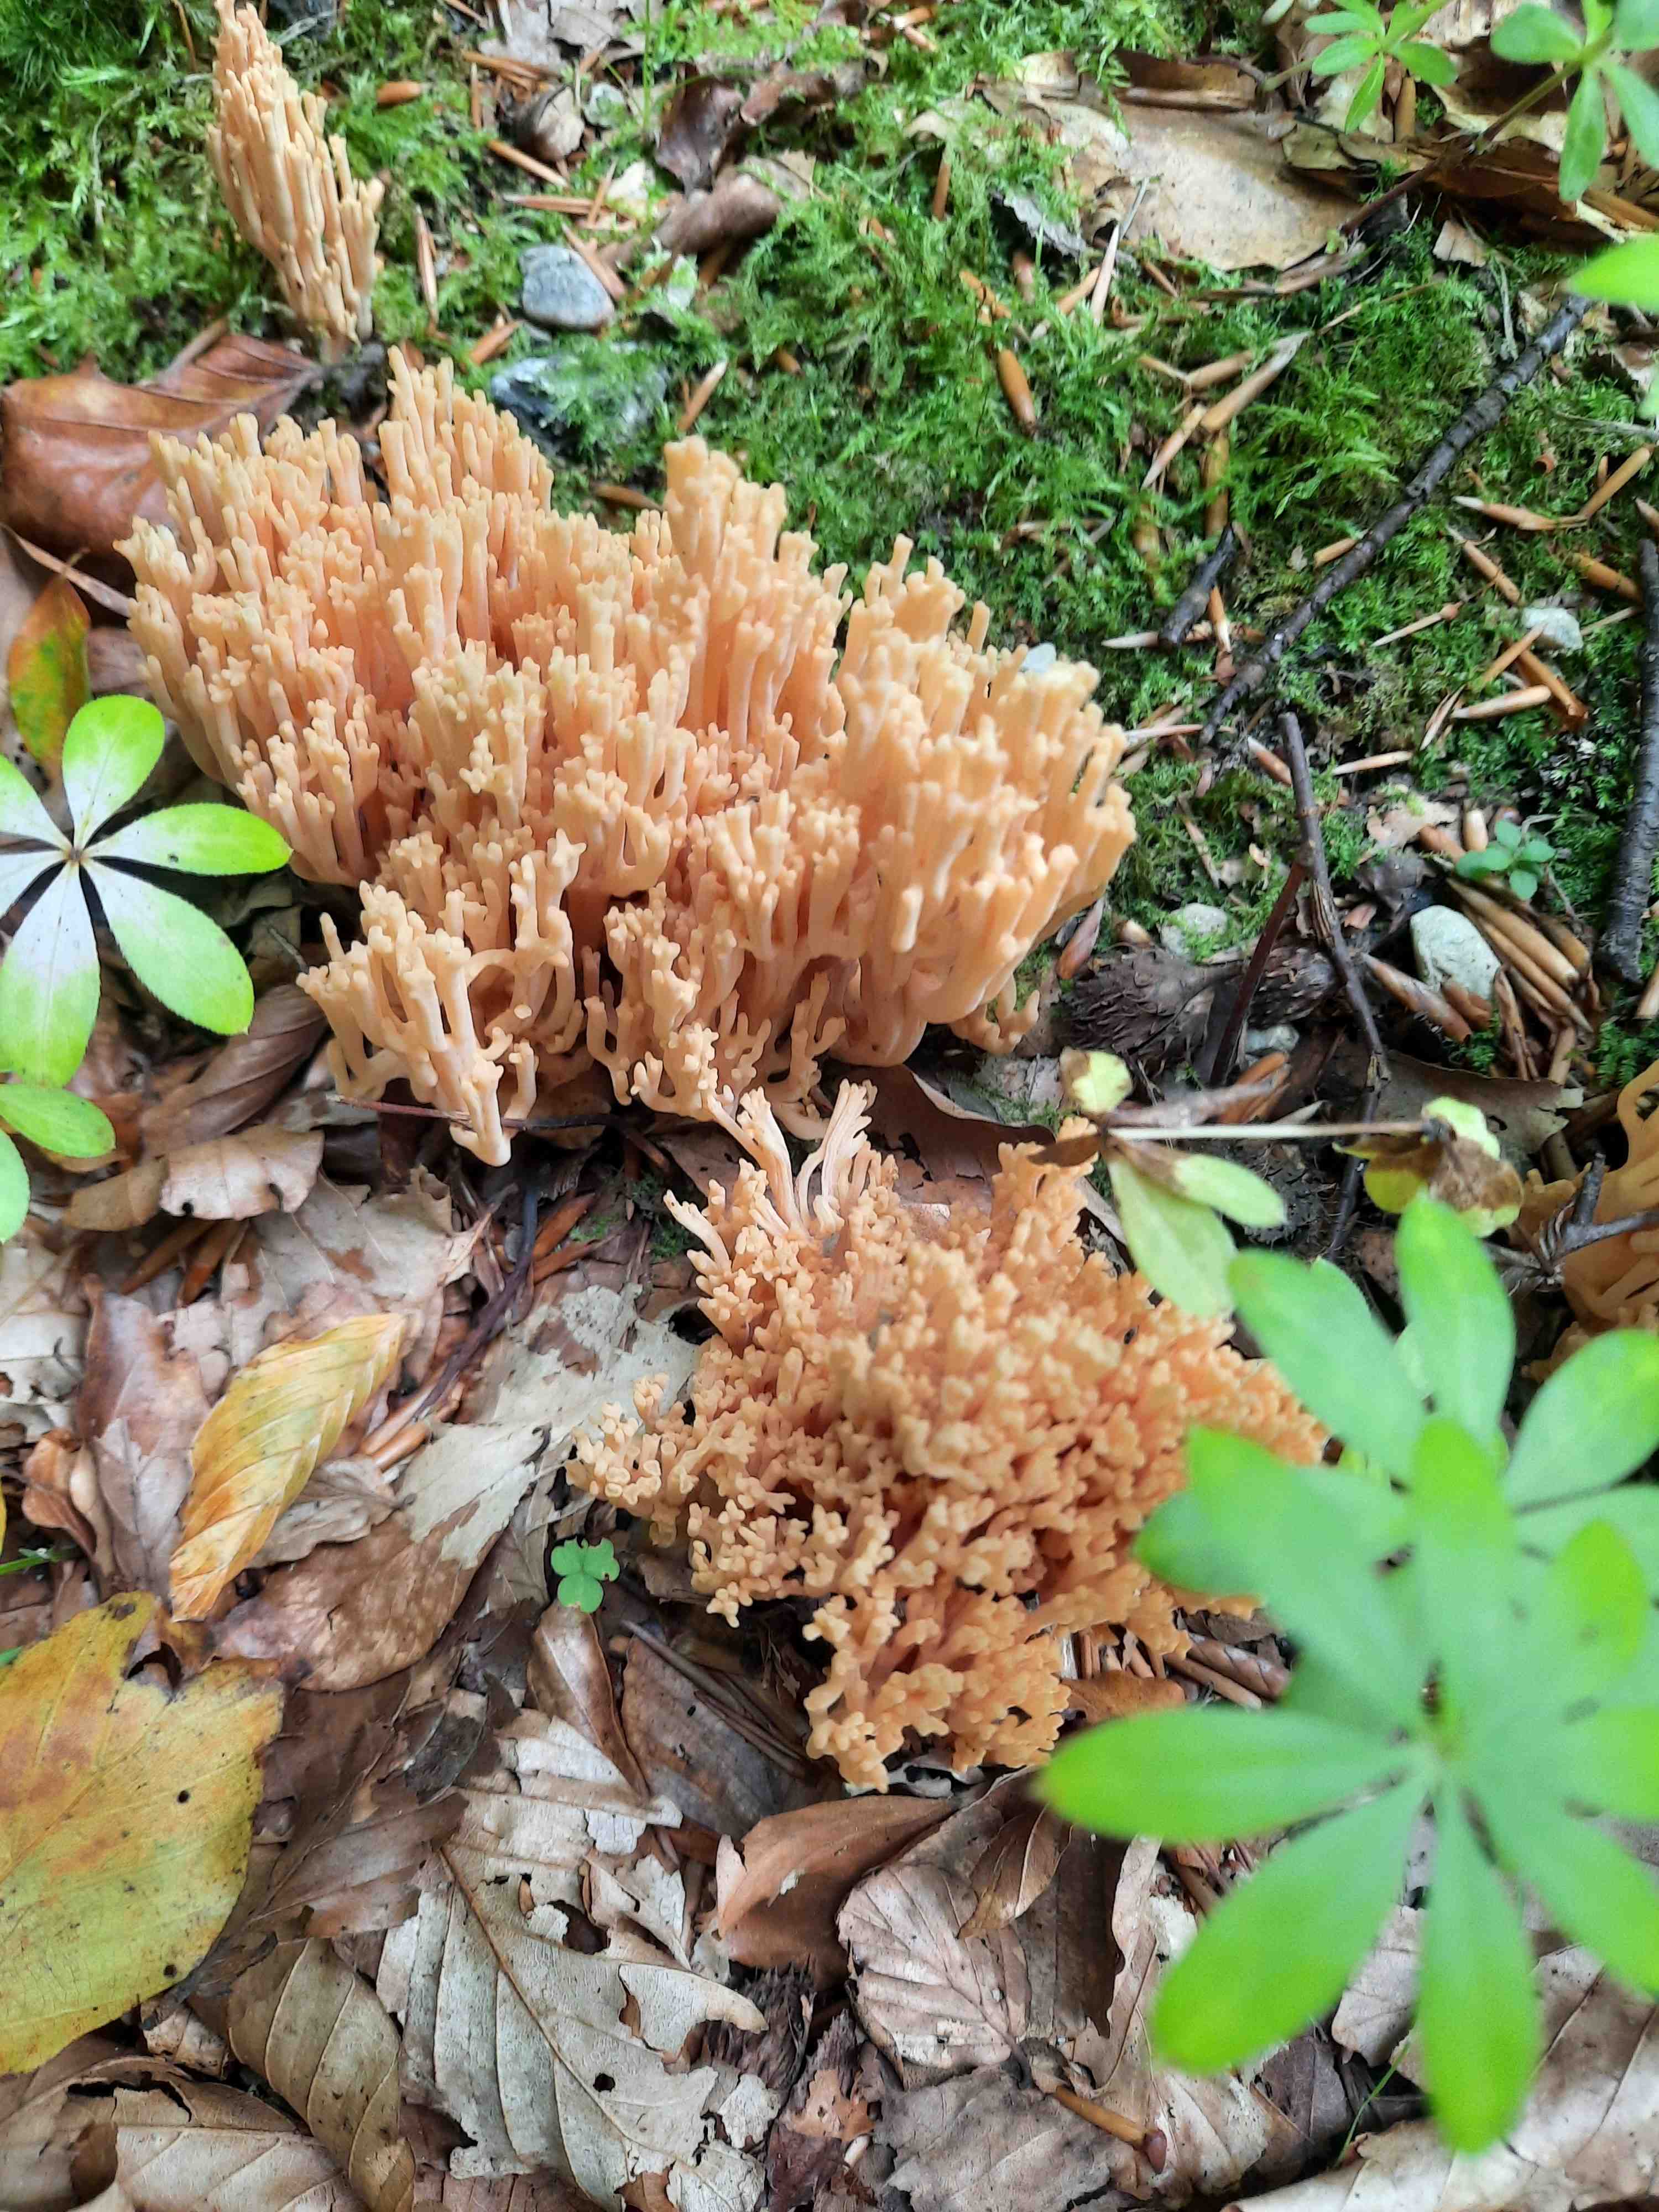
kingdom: Fungi
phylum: Basidiomycota
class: Agaricomycetes
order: Gomphales
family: Gomphaceae
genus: Ramaria
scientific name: Ramaria
